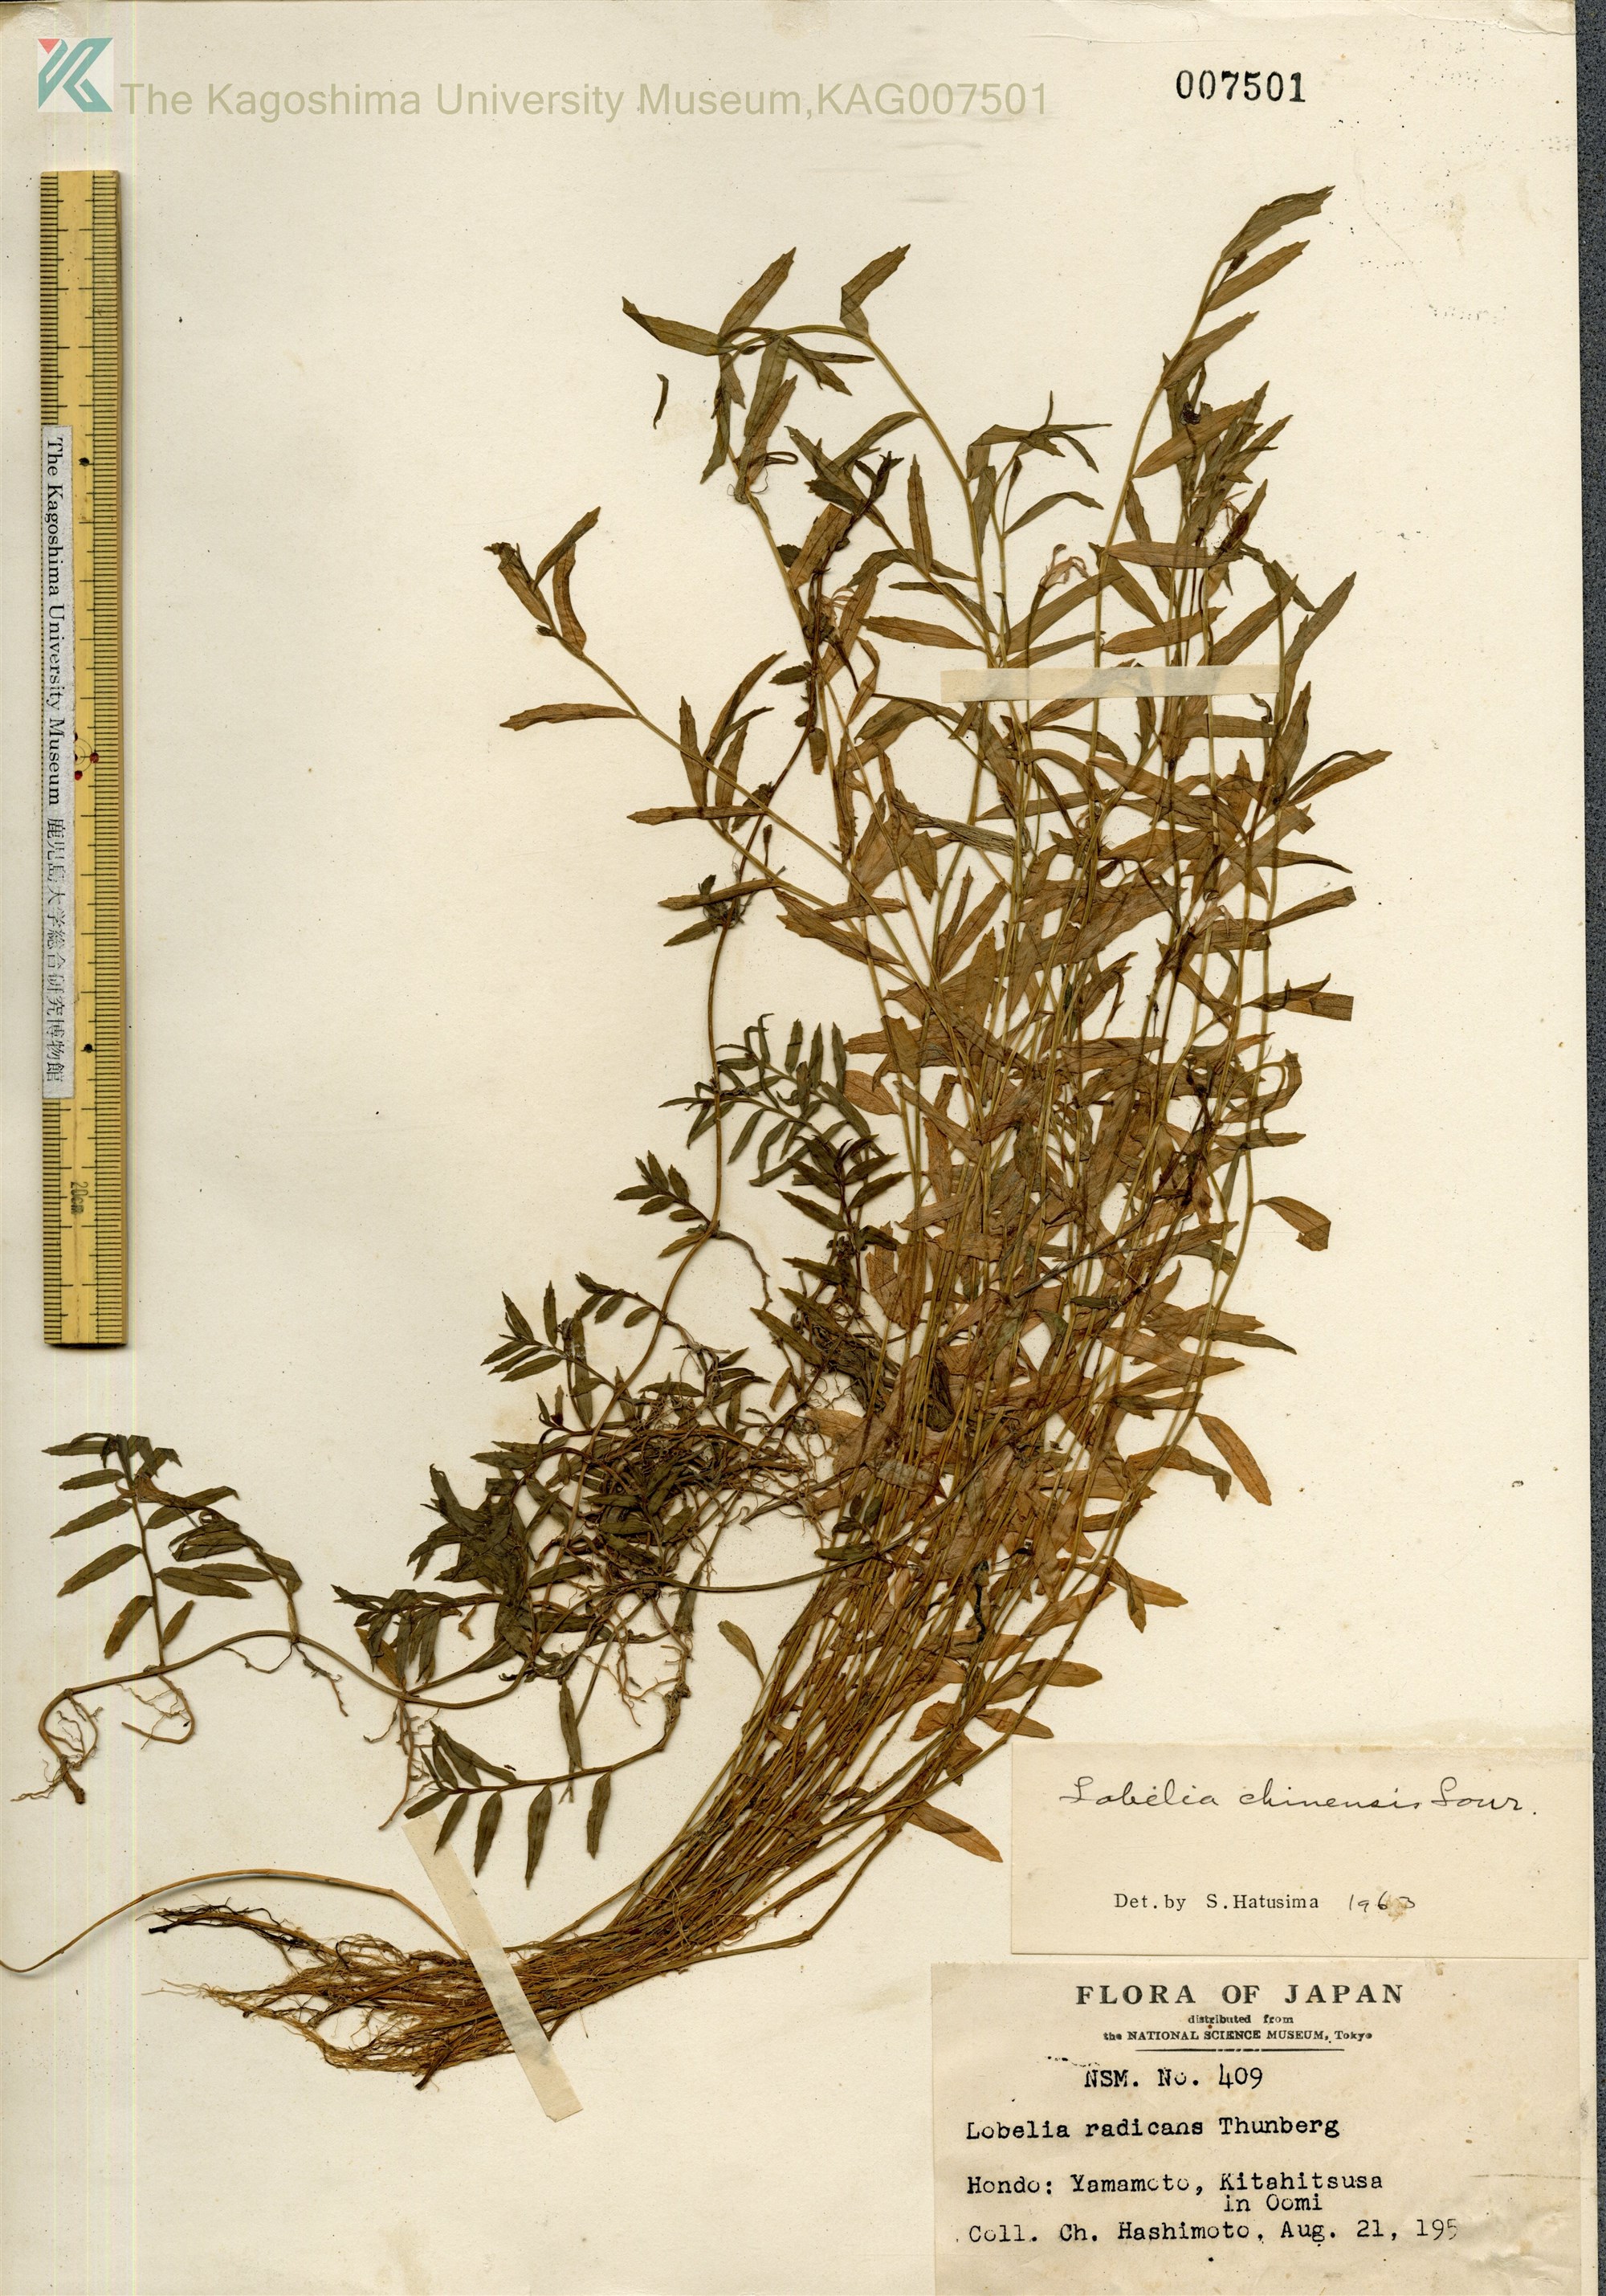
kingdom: Plantae
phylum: Tracheophyta
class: Magnoliopsida
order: Asterales
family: Campanulaceae
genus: Lobelia
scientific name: Lobelia chinensis
